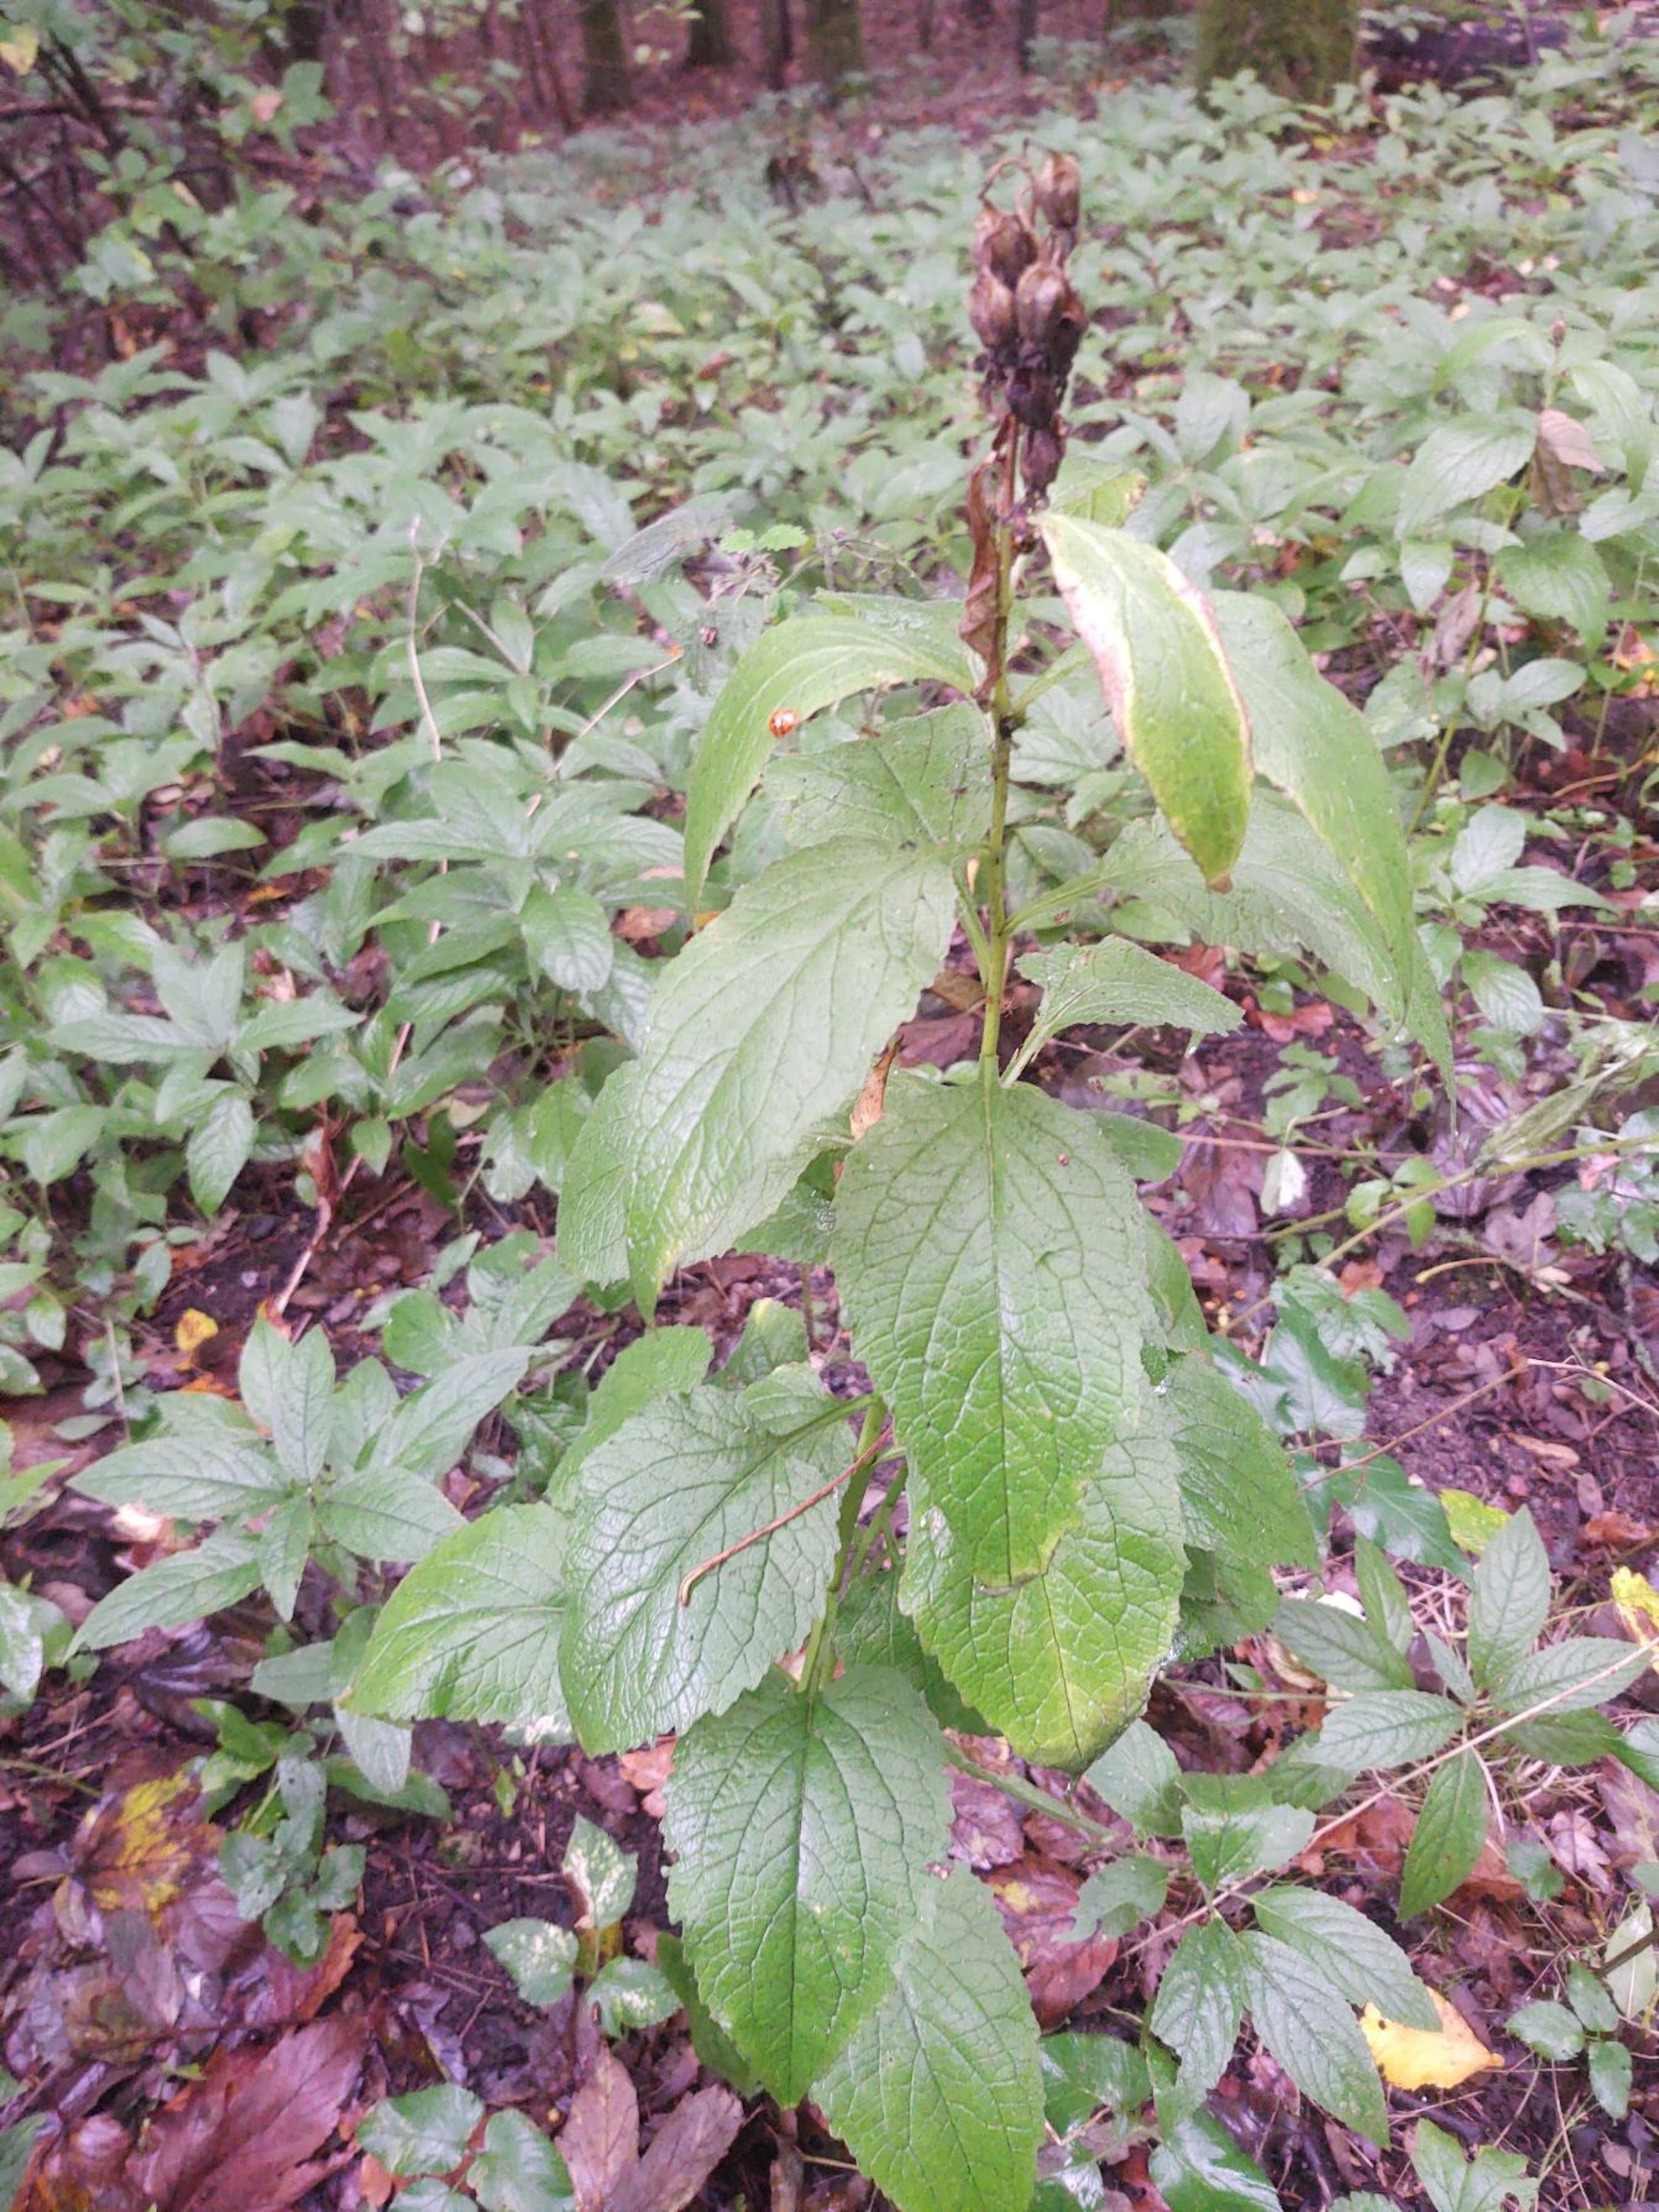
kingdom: Plantae
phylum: Tracheophyta
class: Magnoliopsida
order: Asterales
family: Campanulaceae
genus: Campanula
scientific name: Campanula latifolia
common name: Bredbladet klokke
